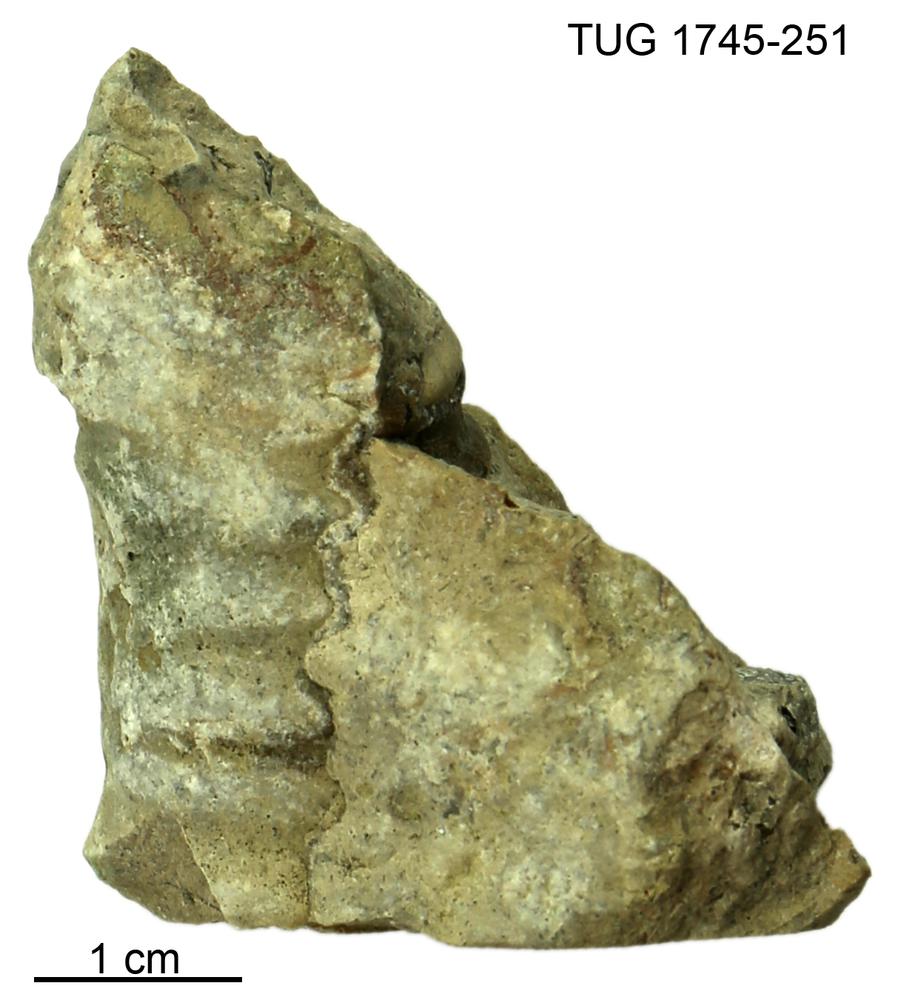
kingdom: Animalia
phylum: Mollusca
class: Cephalopoda
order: Orthocerida
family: Pseudorthoceratidae
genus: Spyroceras
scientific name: Spyroceras
